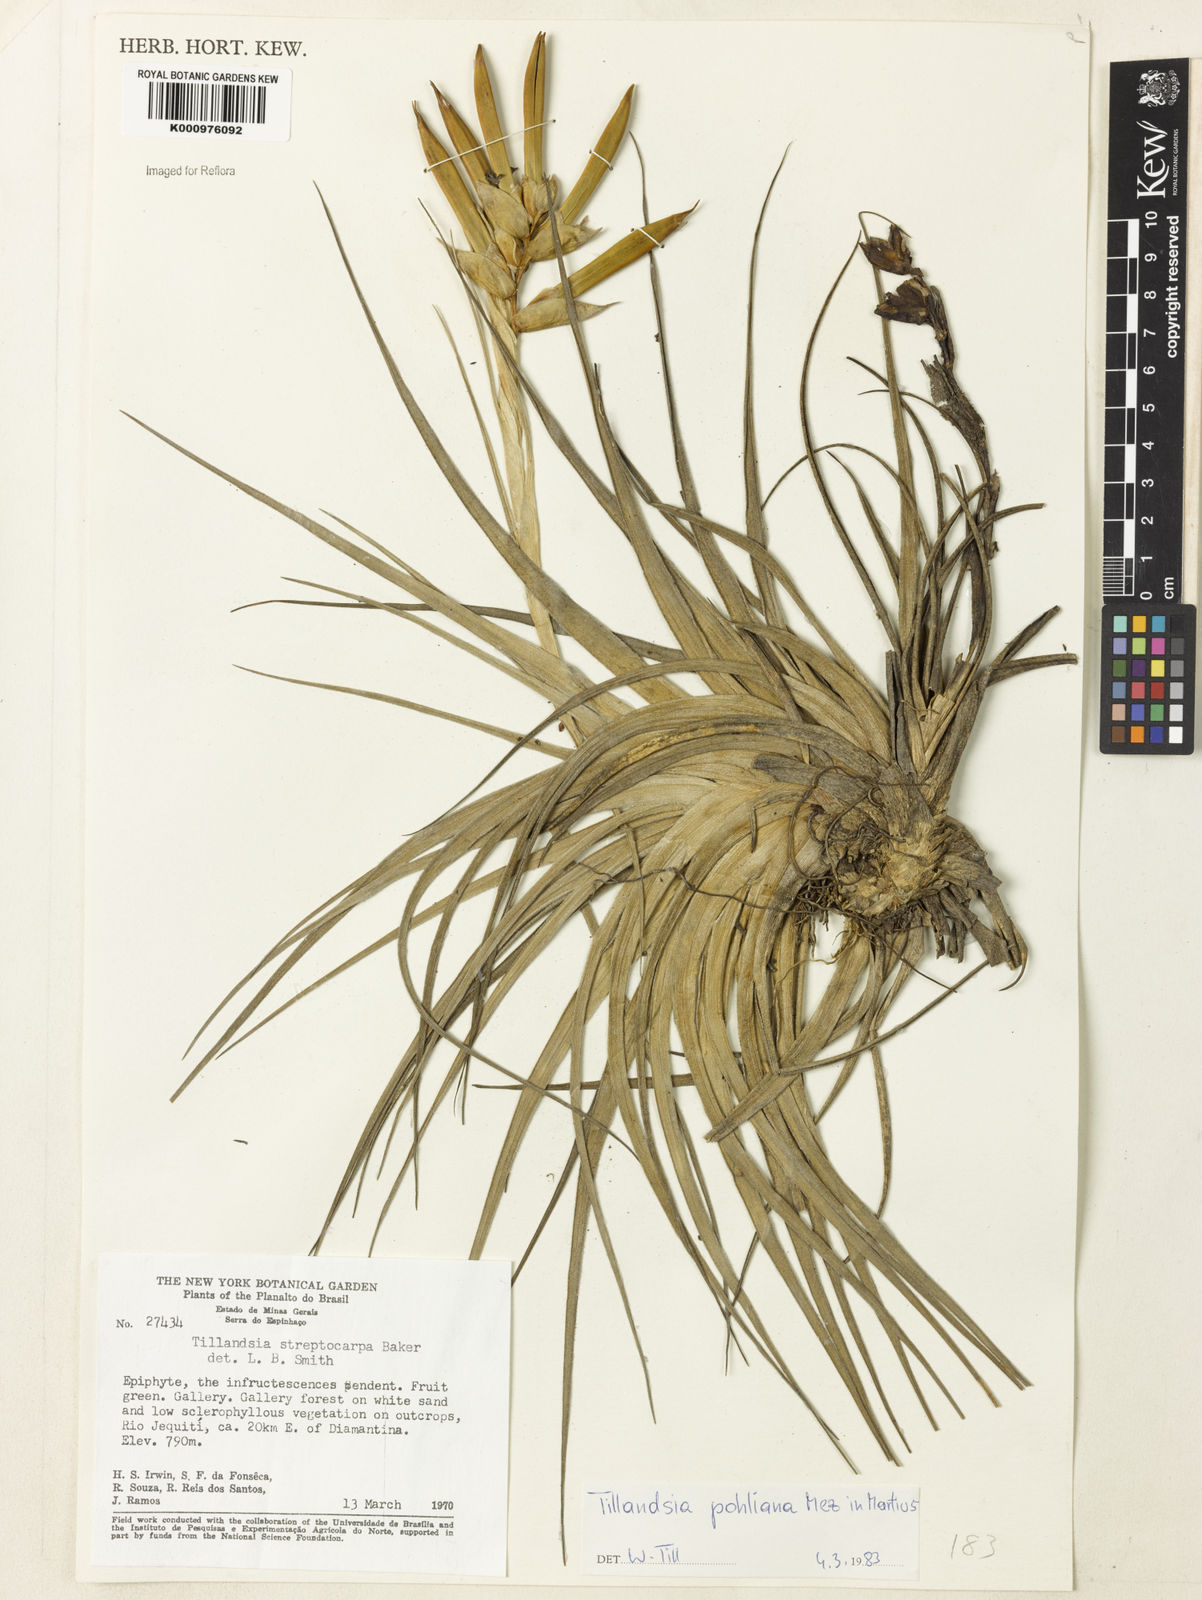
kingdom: Plantae
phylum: Tracheophyta
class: Liliopsida
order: Poales
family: Bromeliaceae
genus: Tillandsia
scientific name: Tillandsia pohliana
